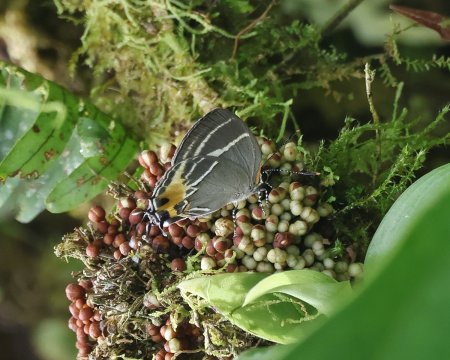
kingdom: Animalia
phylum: Arthropoda
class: Insecta
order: Lepidoptera
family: Lycaenidae
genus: Thecla
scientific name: Thecla terentia
